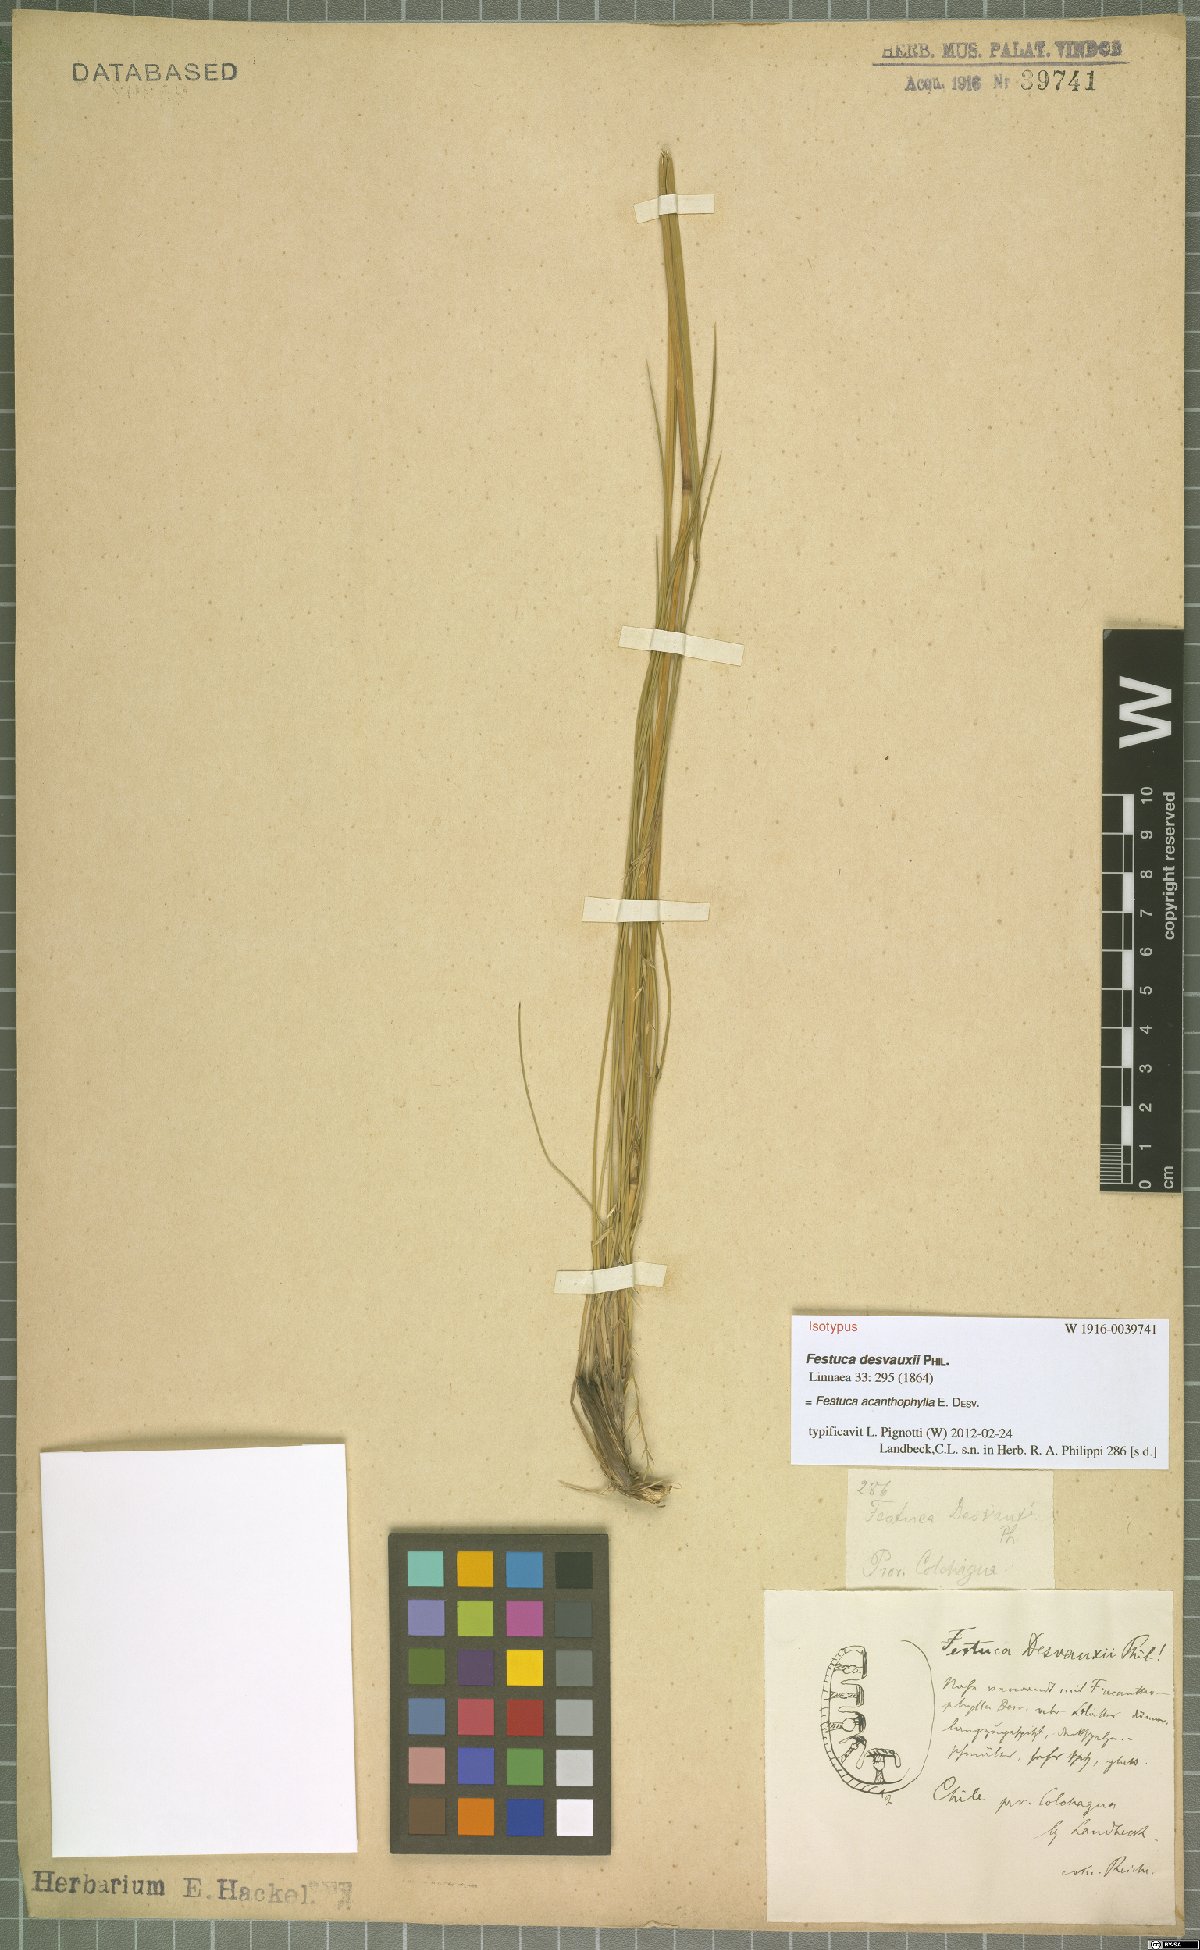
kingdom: Plantae
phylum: Tracheophyta
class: Liliopsida
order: Poales
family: Poaceae
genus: Festuca
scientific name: Festuca acanthophylla
